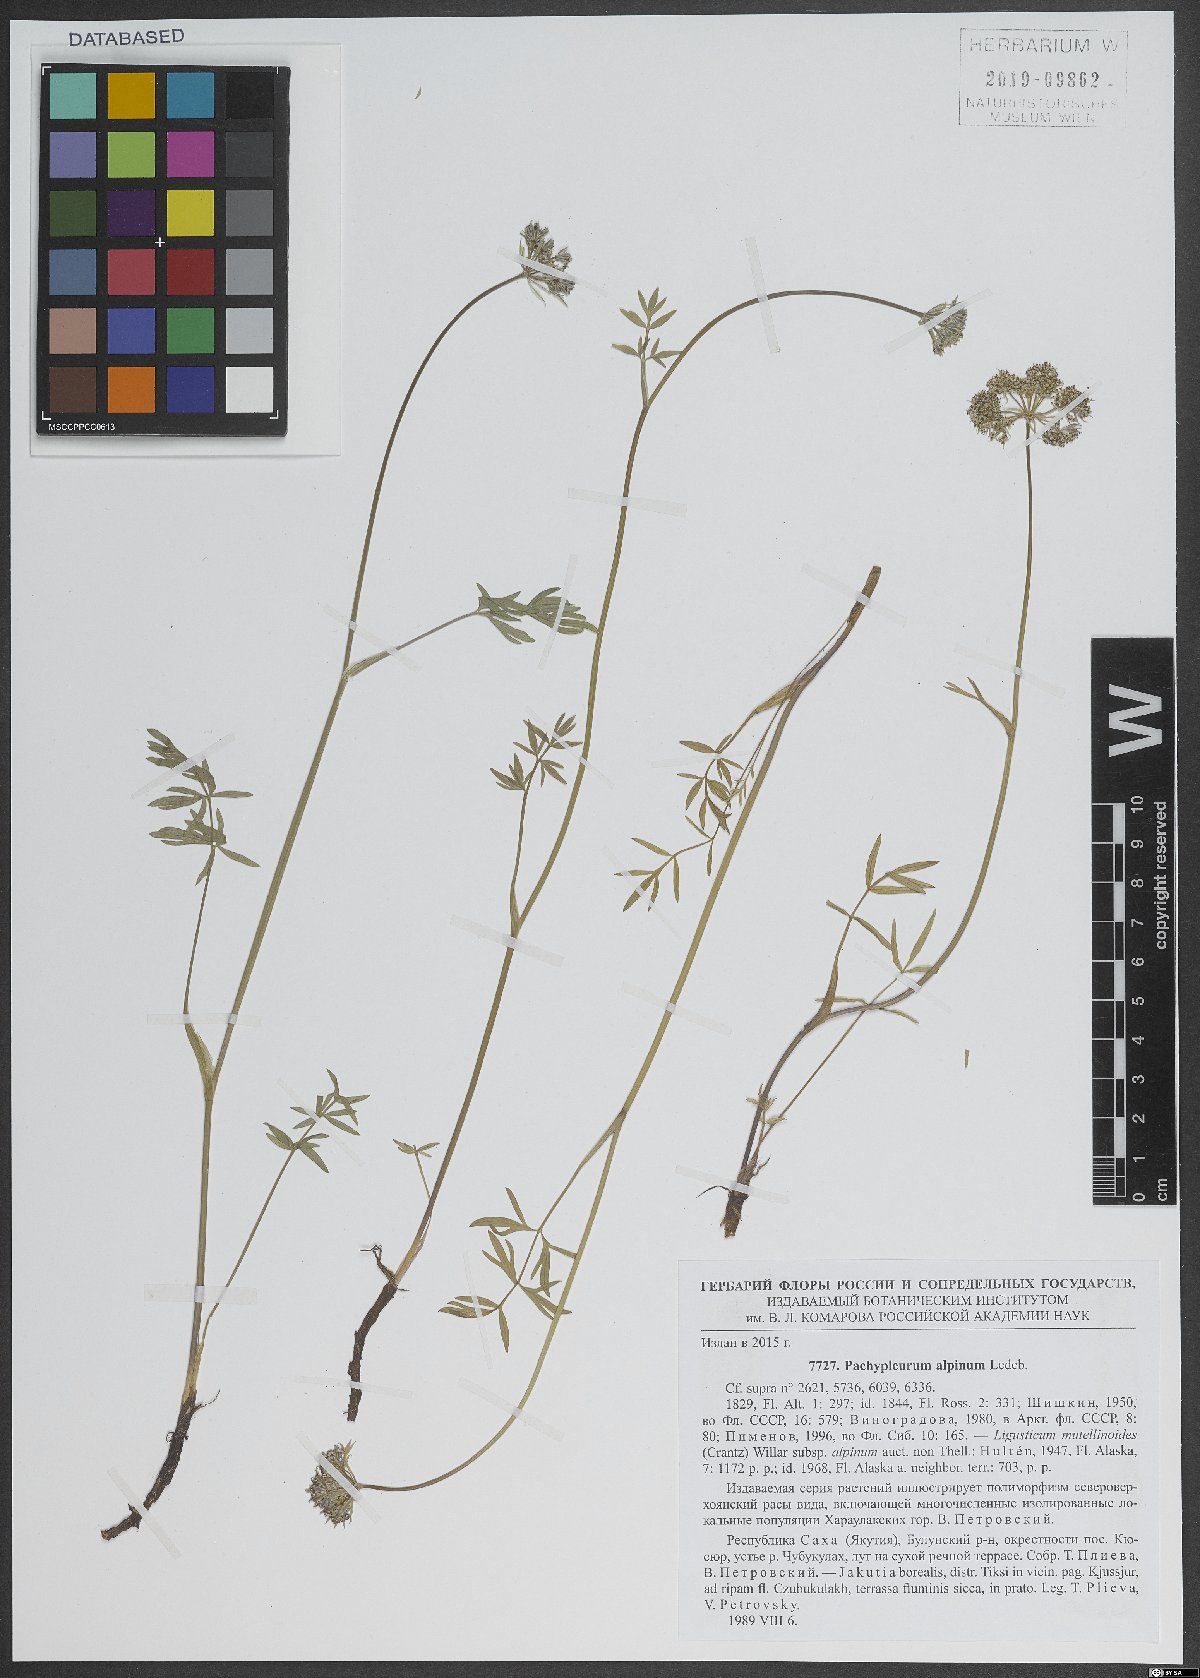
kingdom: Plantae
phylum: Tracheophyta
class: Magnoliopsida
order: Apiales
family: Apiaceae
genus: Pachypleurum
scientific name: Pachypleurum mutellinoides
